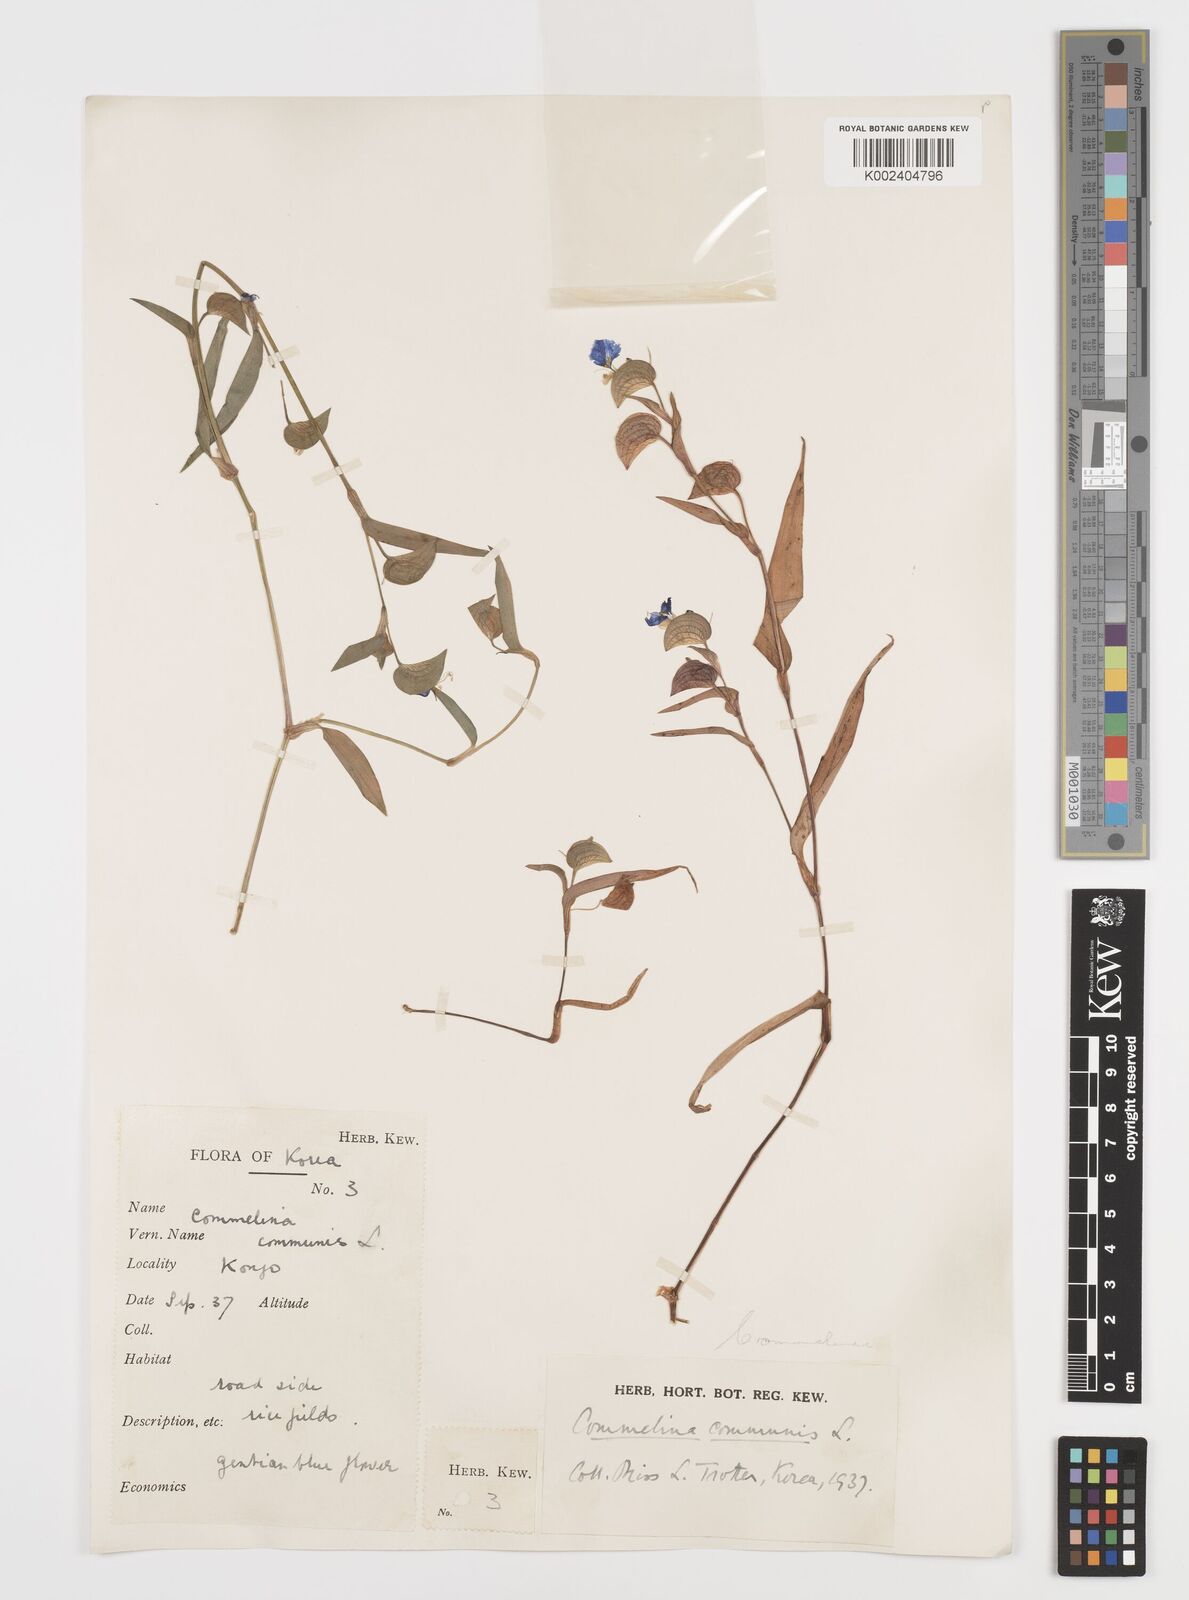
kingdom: Plantae
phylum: Tracheophyta
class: Liliopsida
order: Commelinales
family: Commelinaceae
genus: Commelina
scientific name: Commelina communis
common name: Asiatic dayflower
